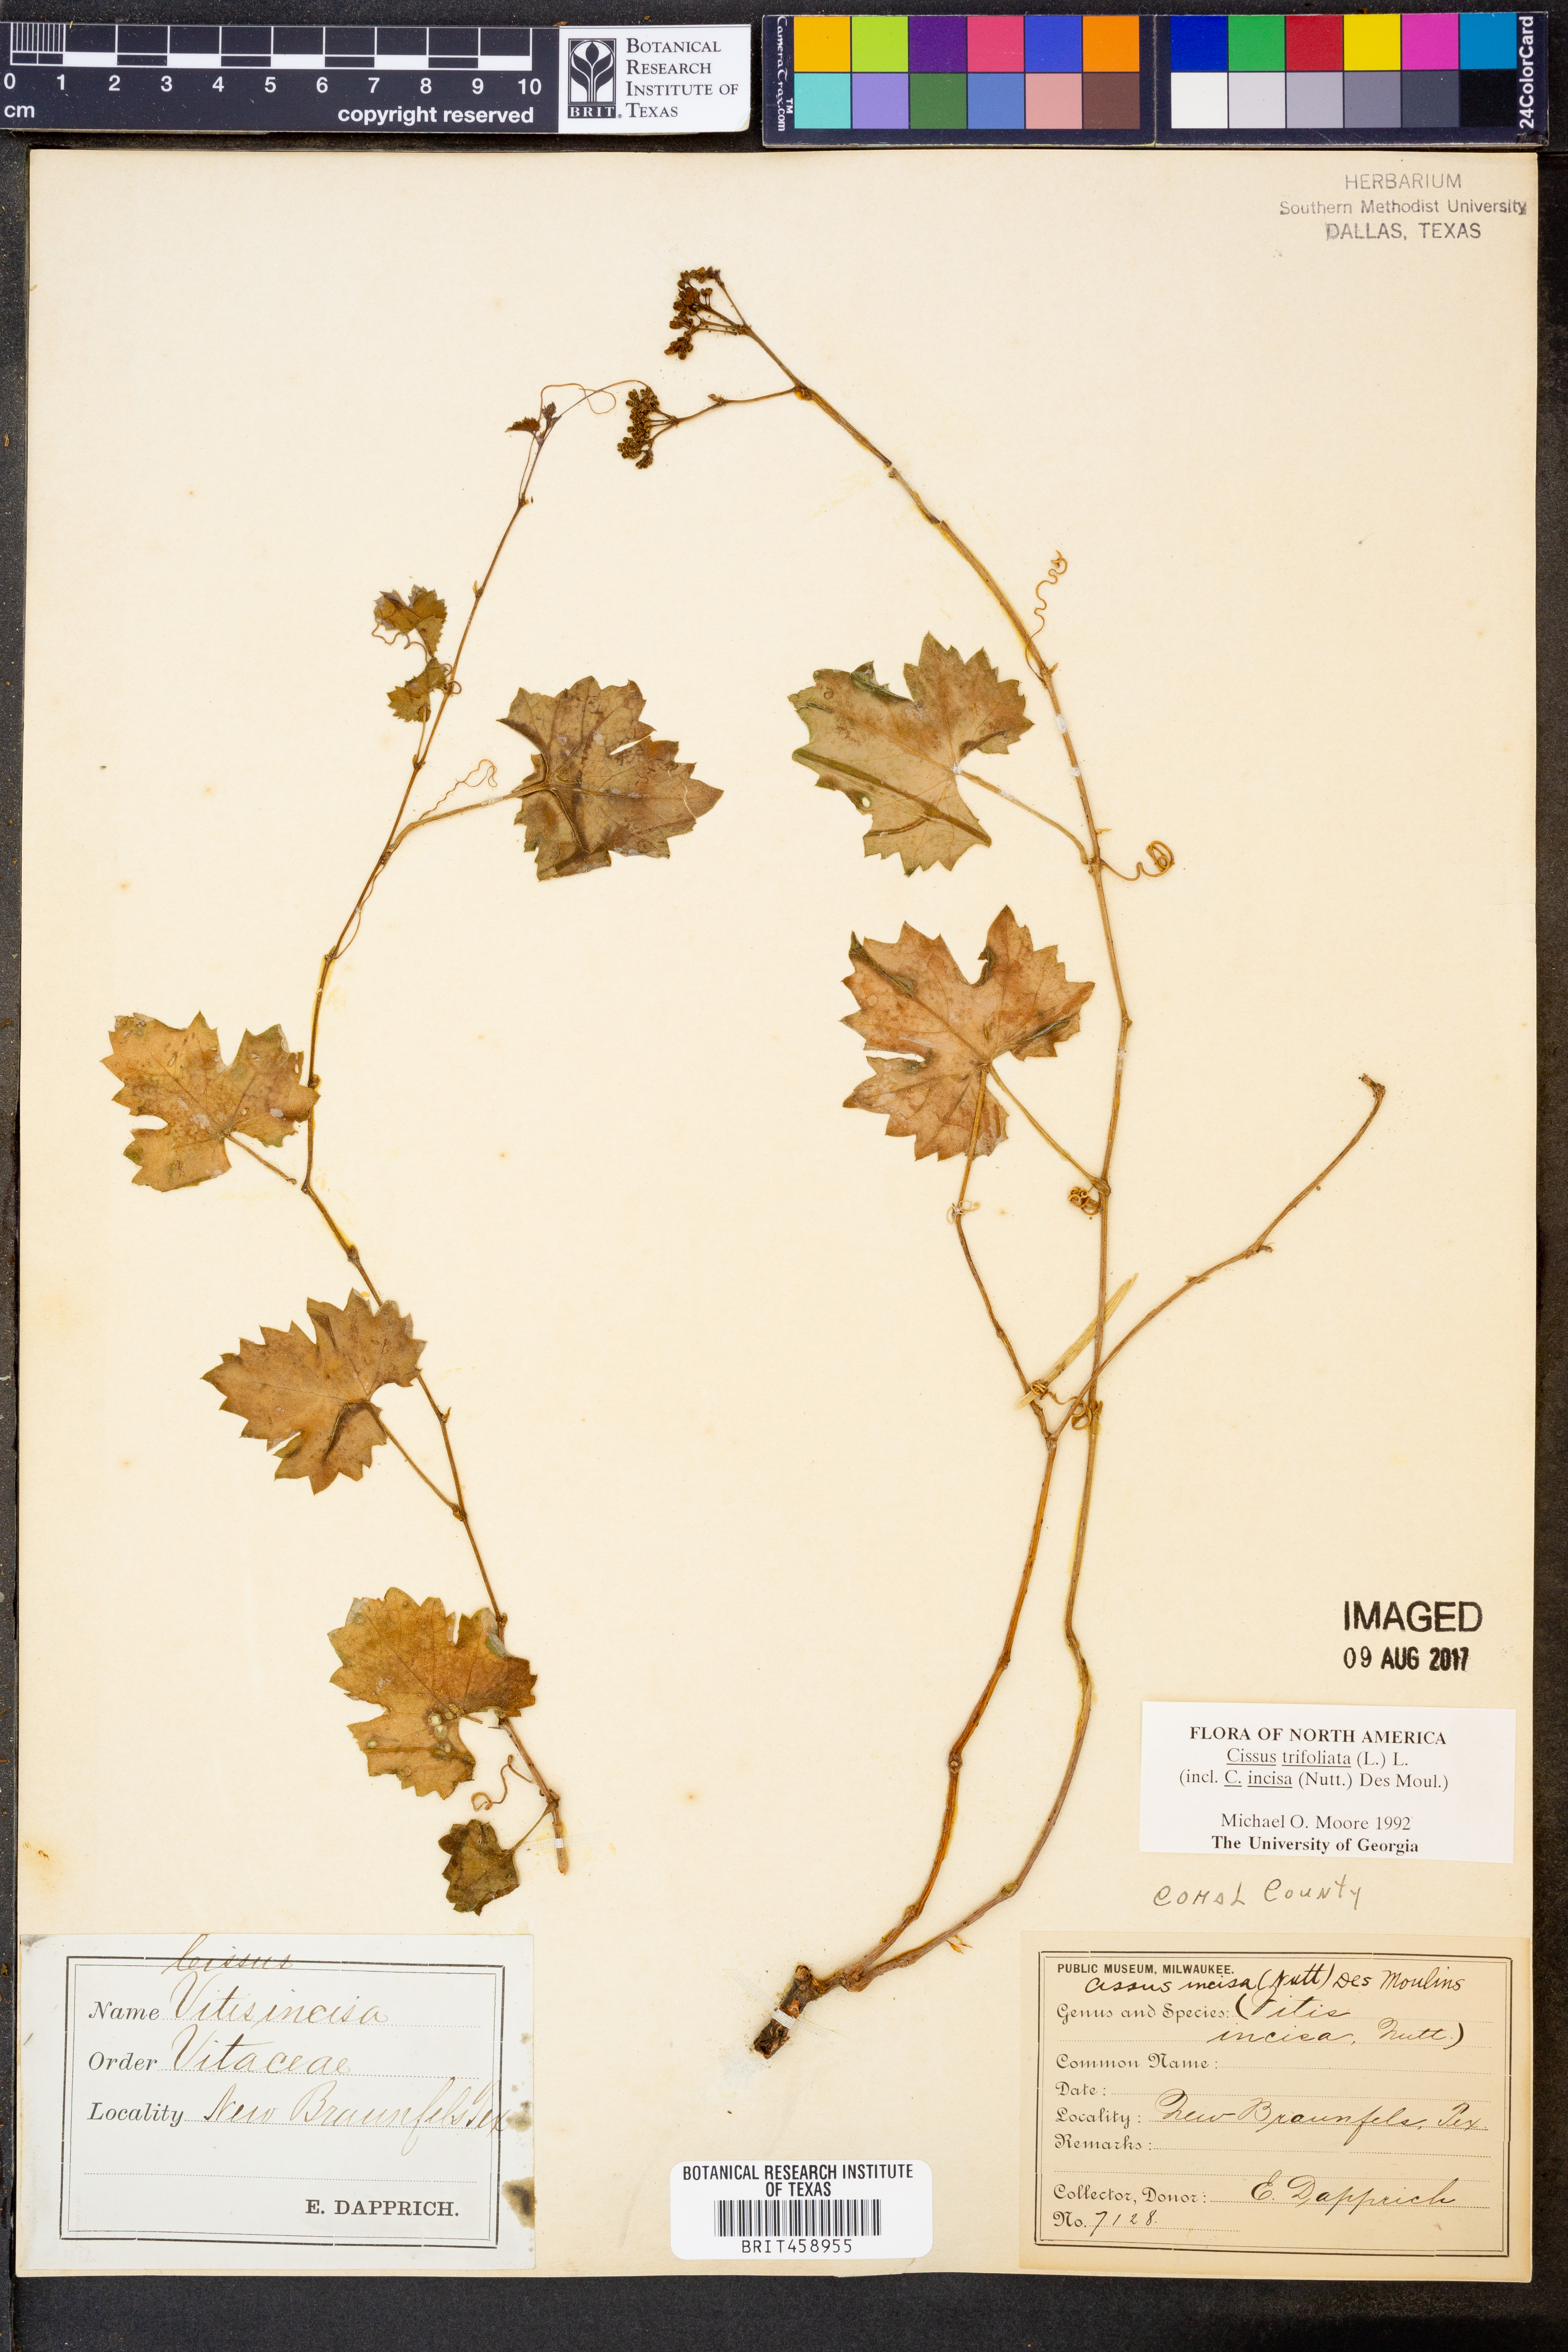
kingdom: Plantae
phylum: Tracheophyta
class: Magnoliopsida
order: Vitales
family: Vitaceae
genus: Cissus
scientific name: Cissus trifoliata
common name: Vine-sorrel
